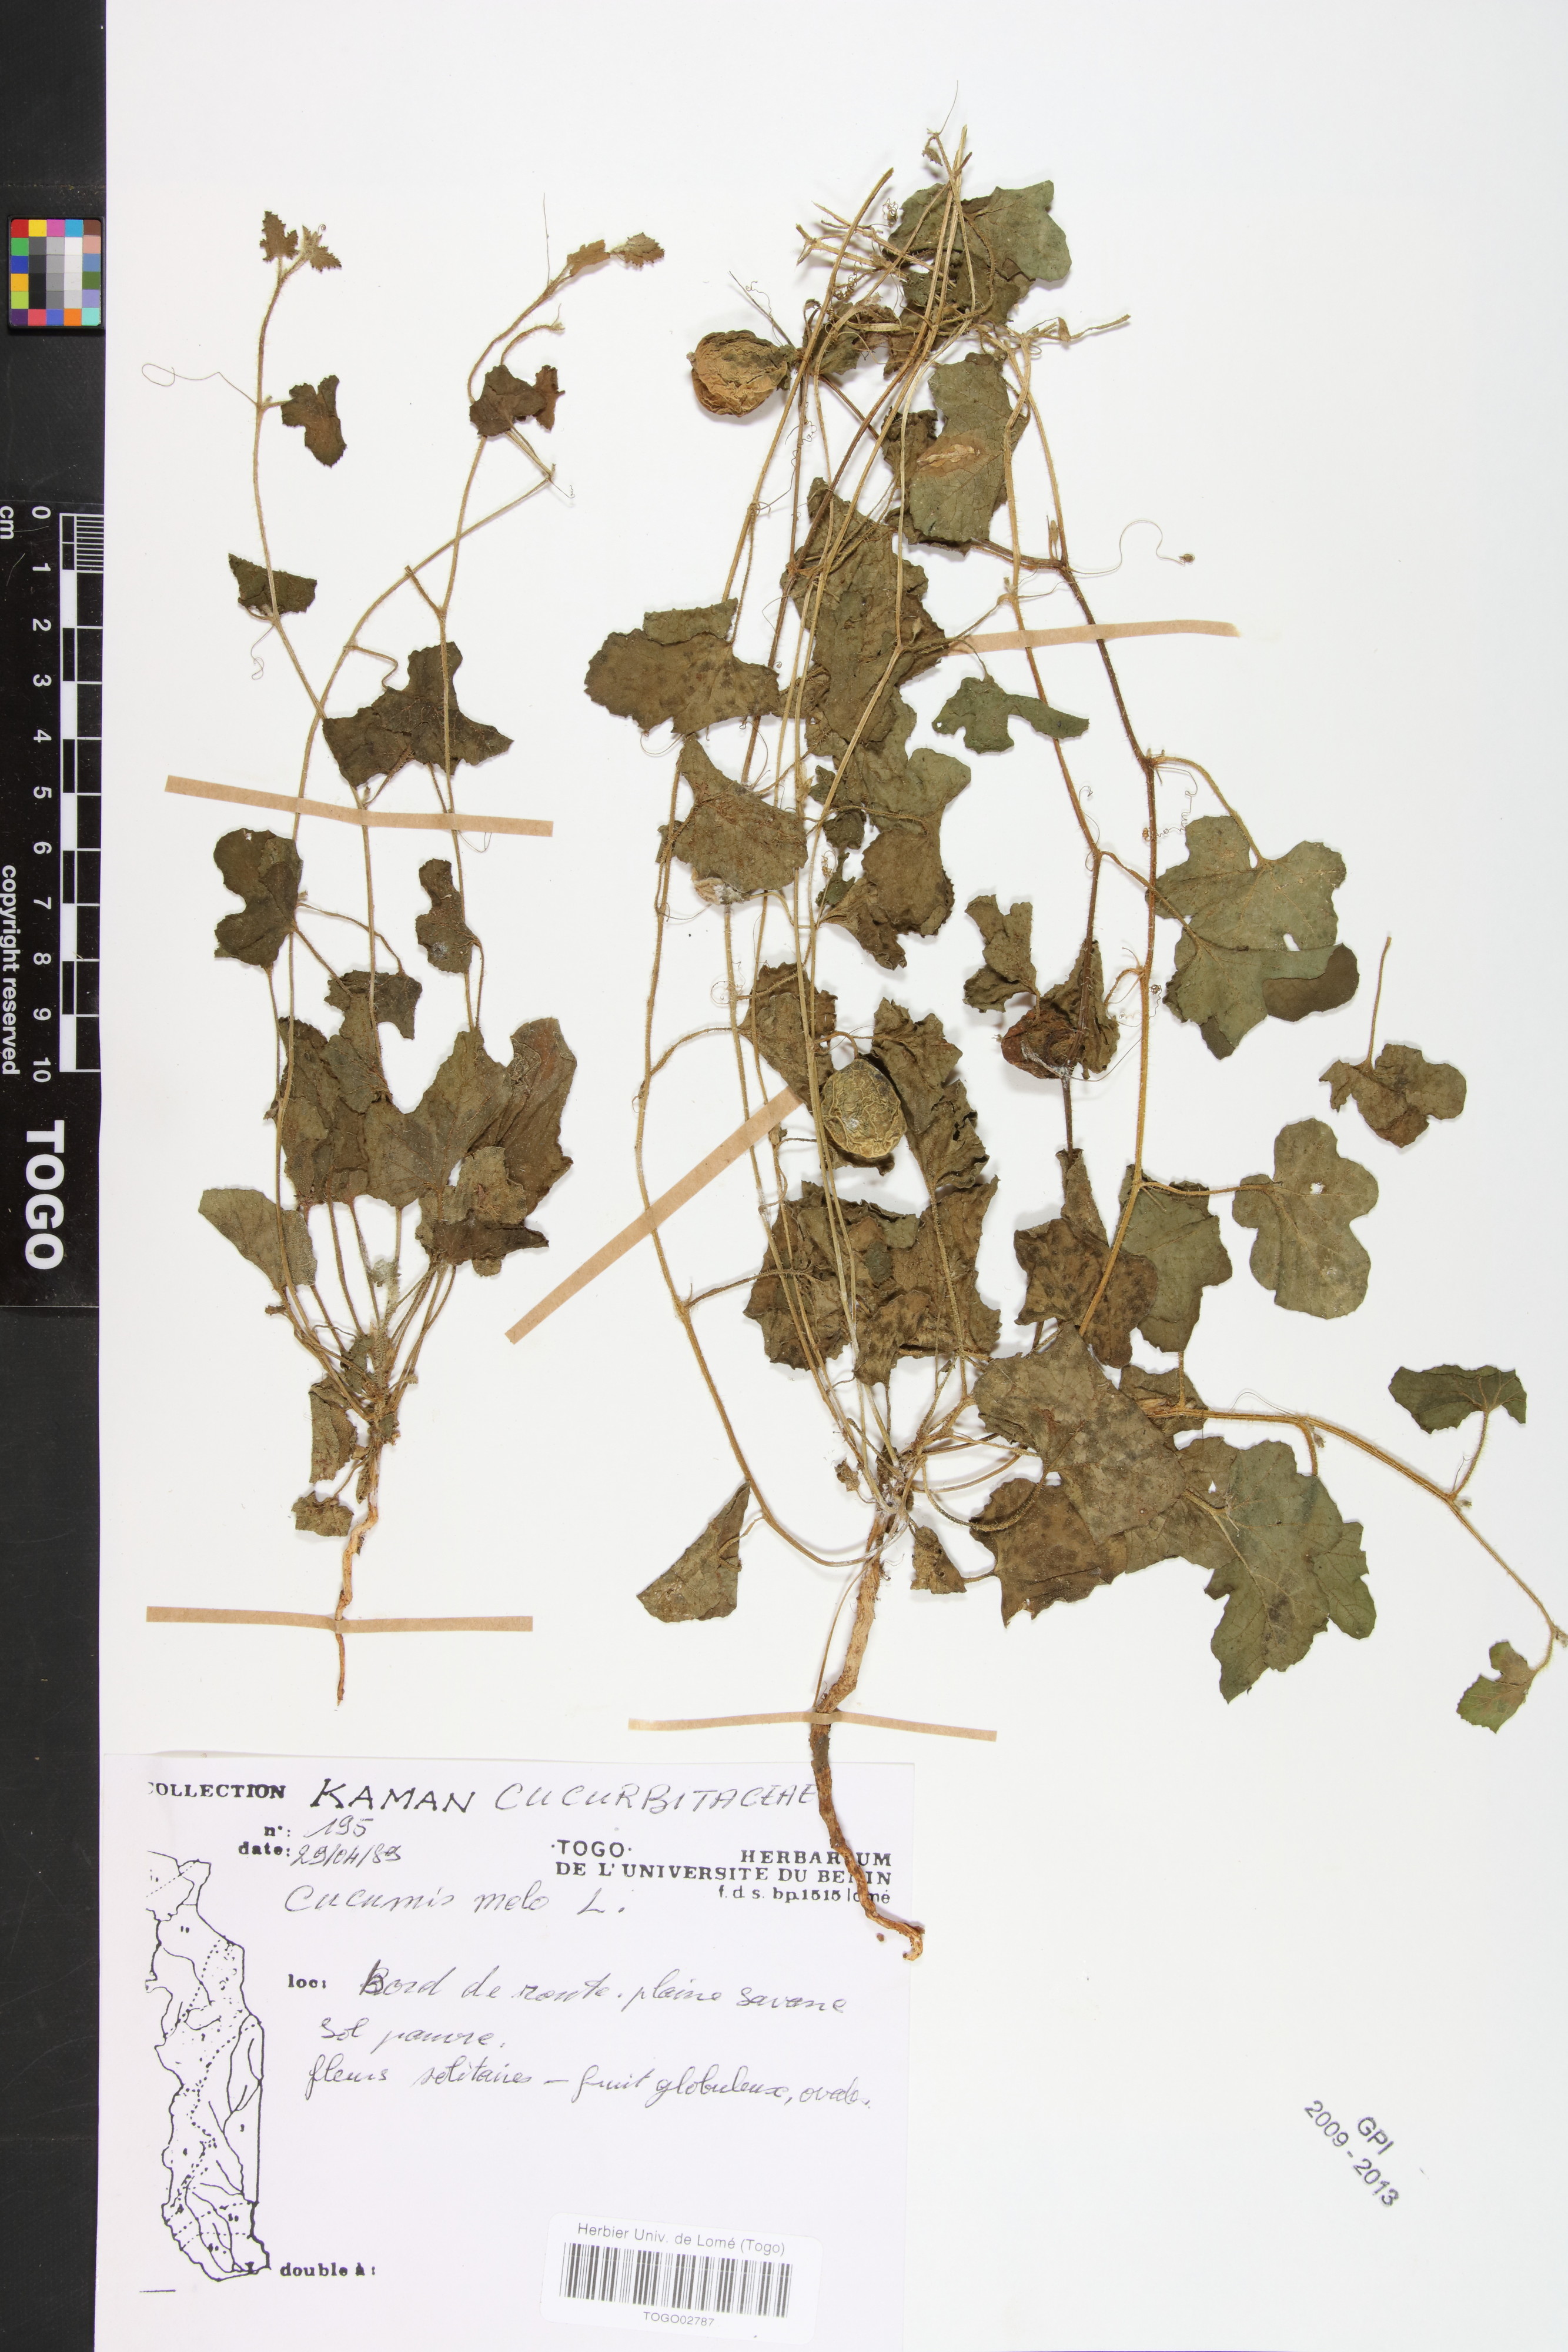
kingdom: Plantae
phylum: Tracheophyta
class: Magnoliopsida
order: Cucurbitales
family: Cucurbitaceae
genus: Cucumis
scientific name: Cucumis melo
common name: Melon
